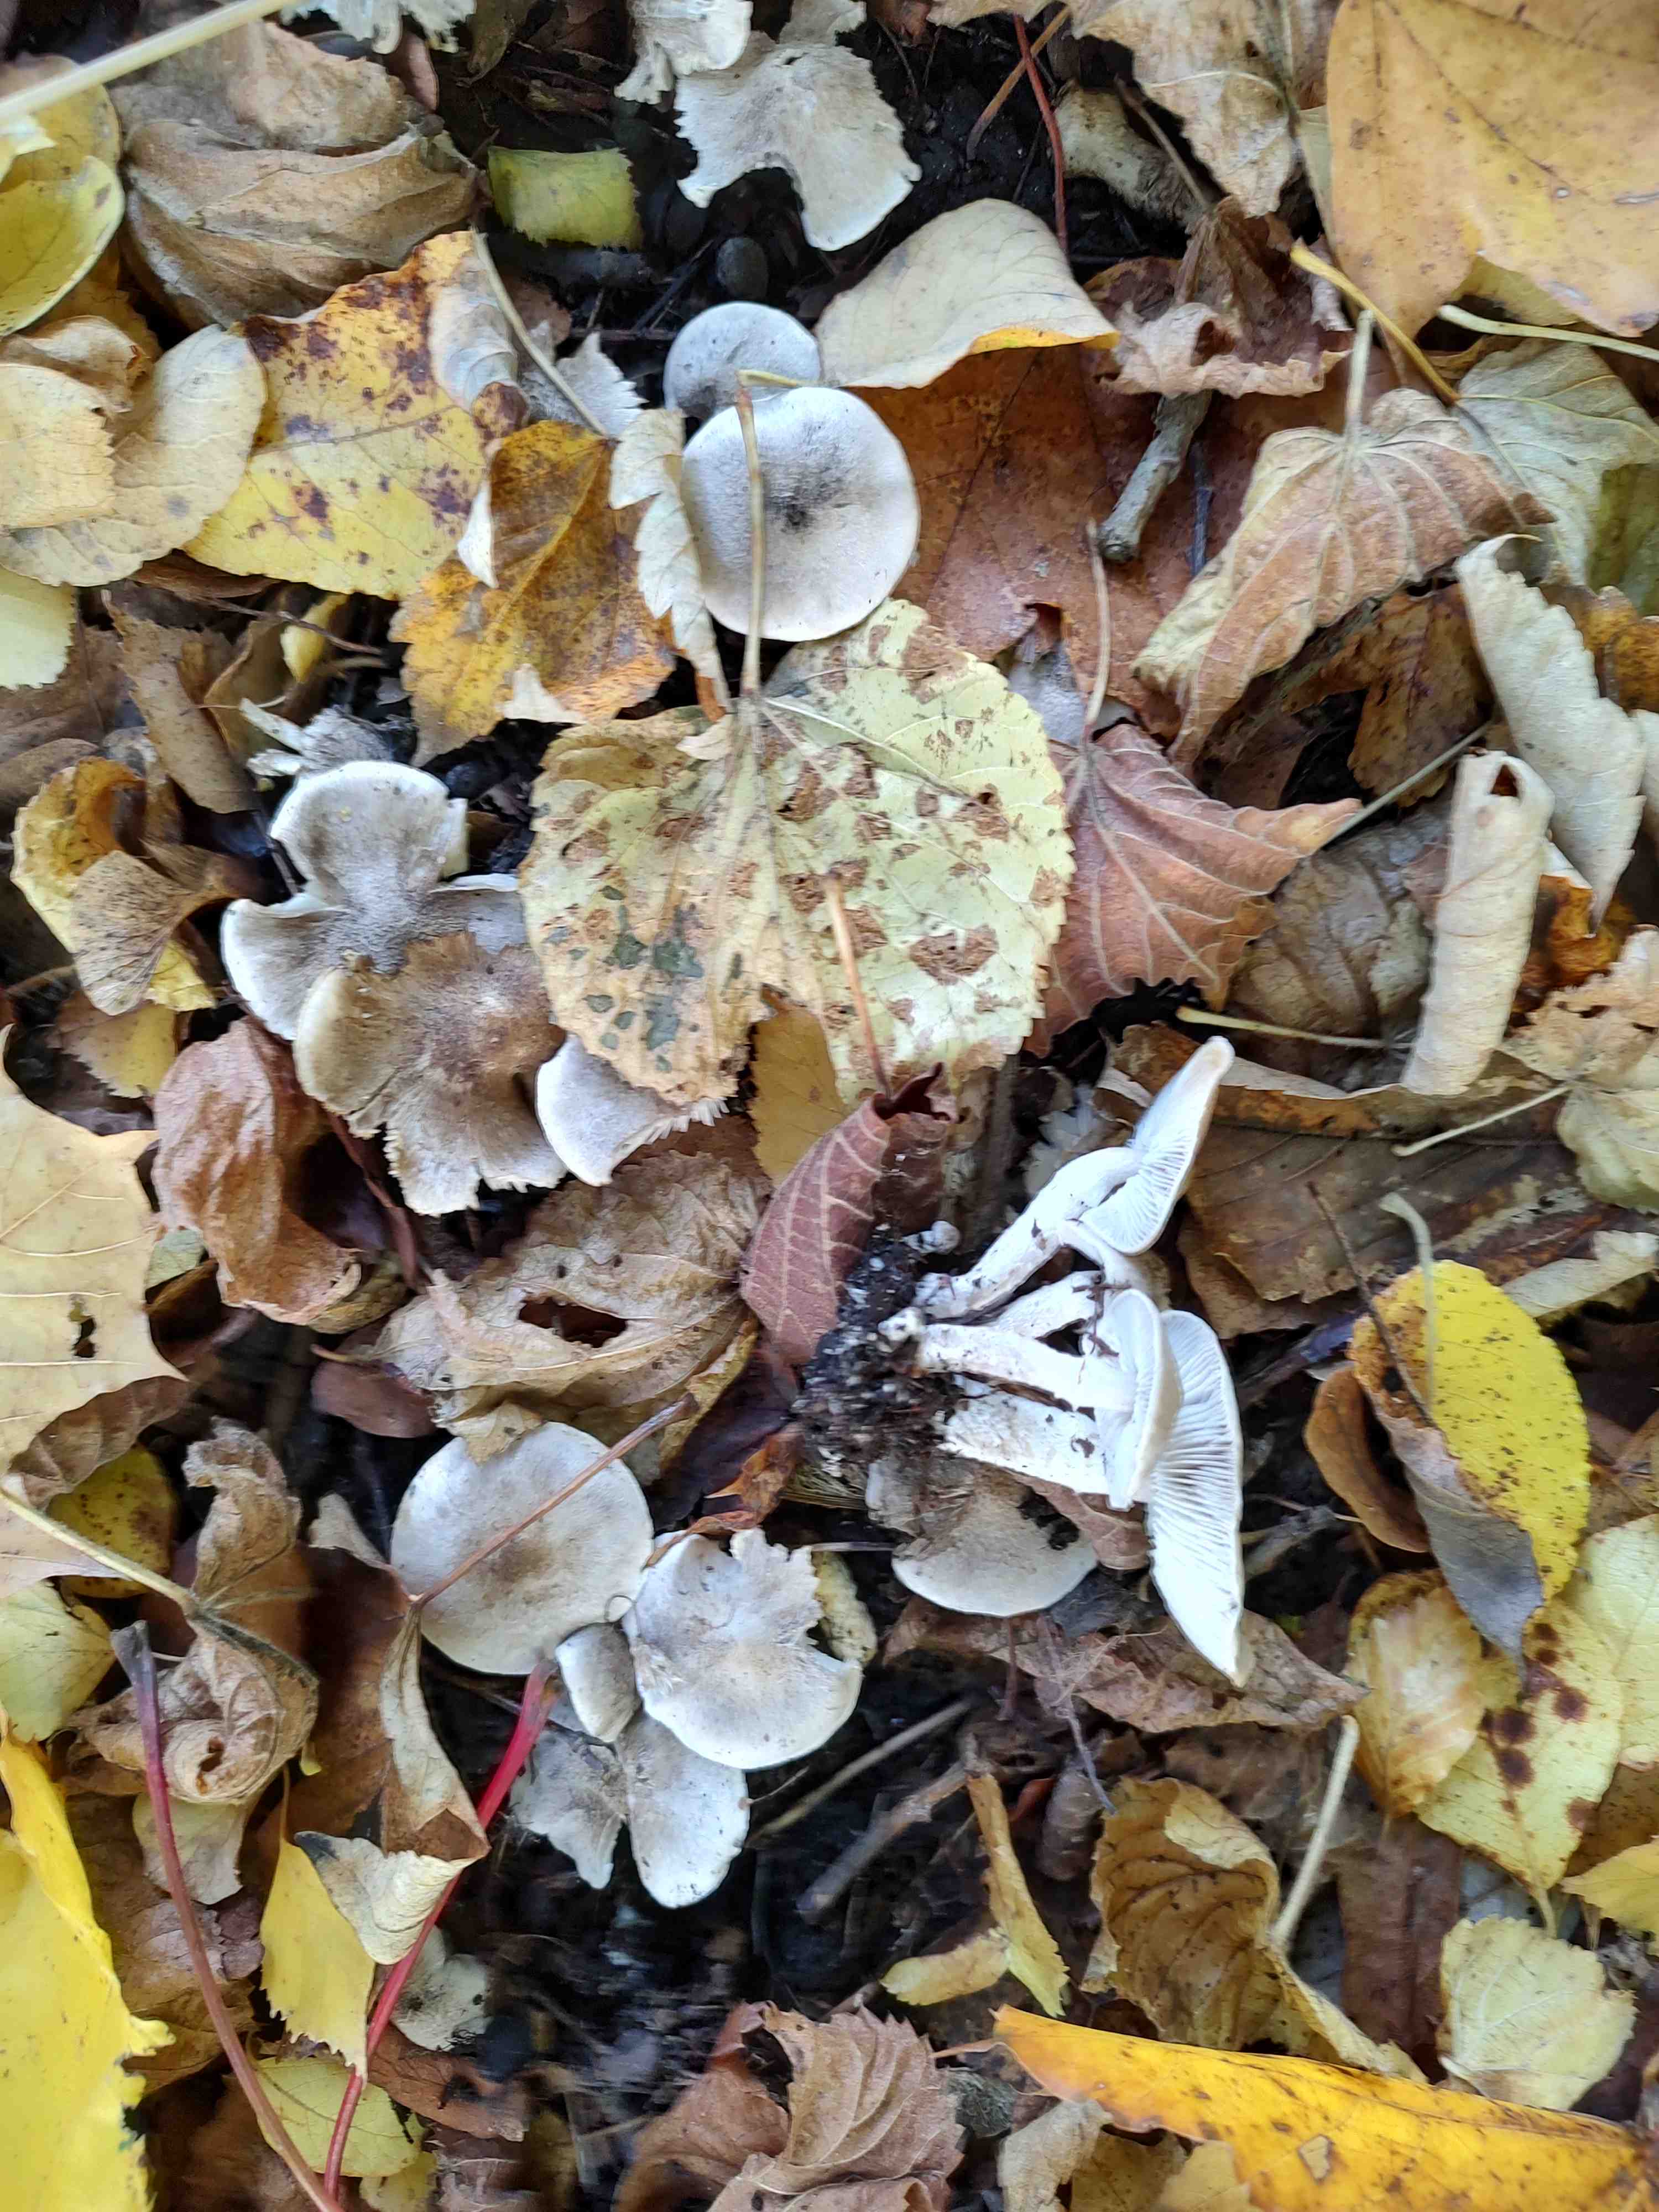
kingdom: Fungi
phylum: Basidiomycota
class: Agaricomycetes
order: Agaricales
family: Tricholomataceae
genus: Tricholoma
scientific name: Tricholoma cingulatum
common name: ring-ridderhat
